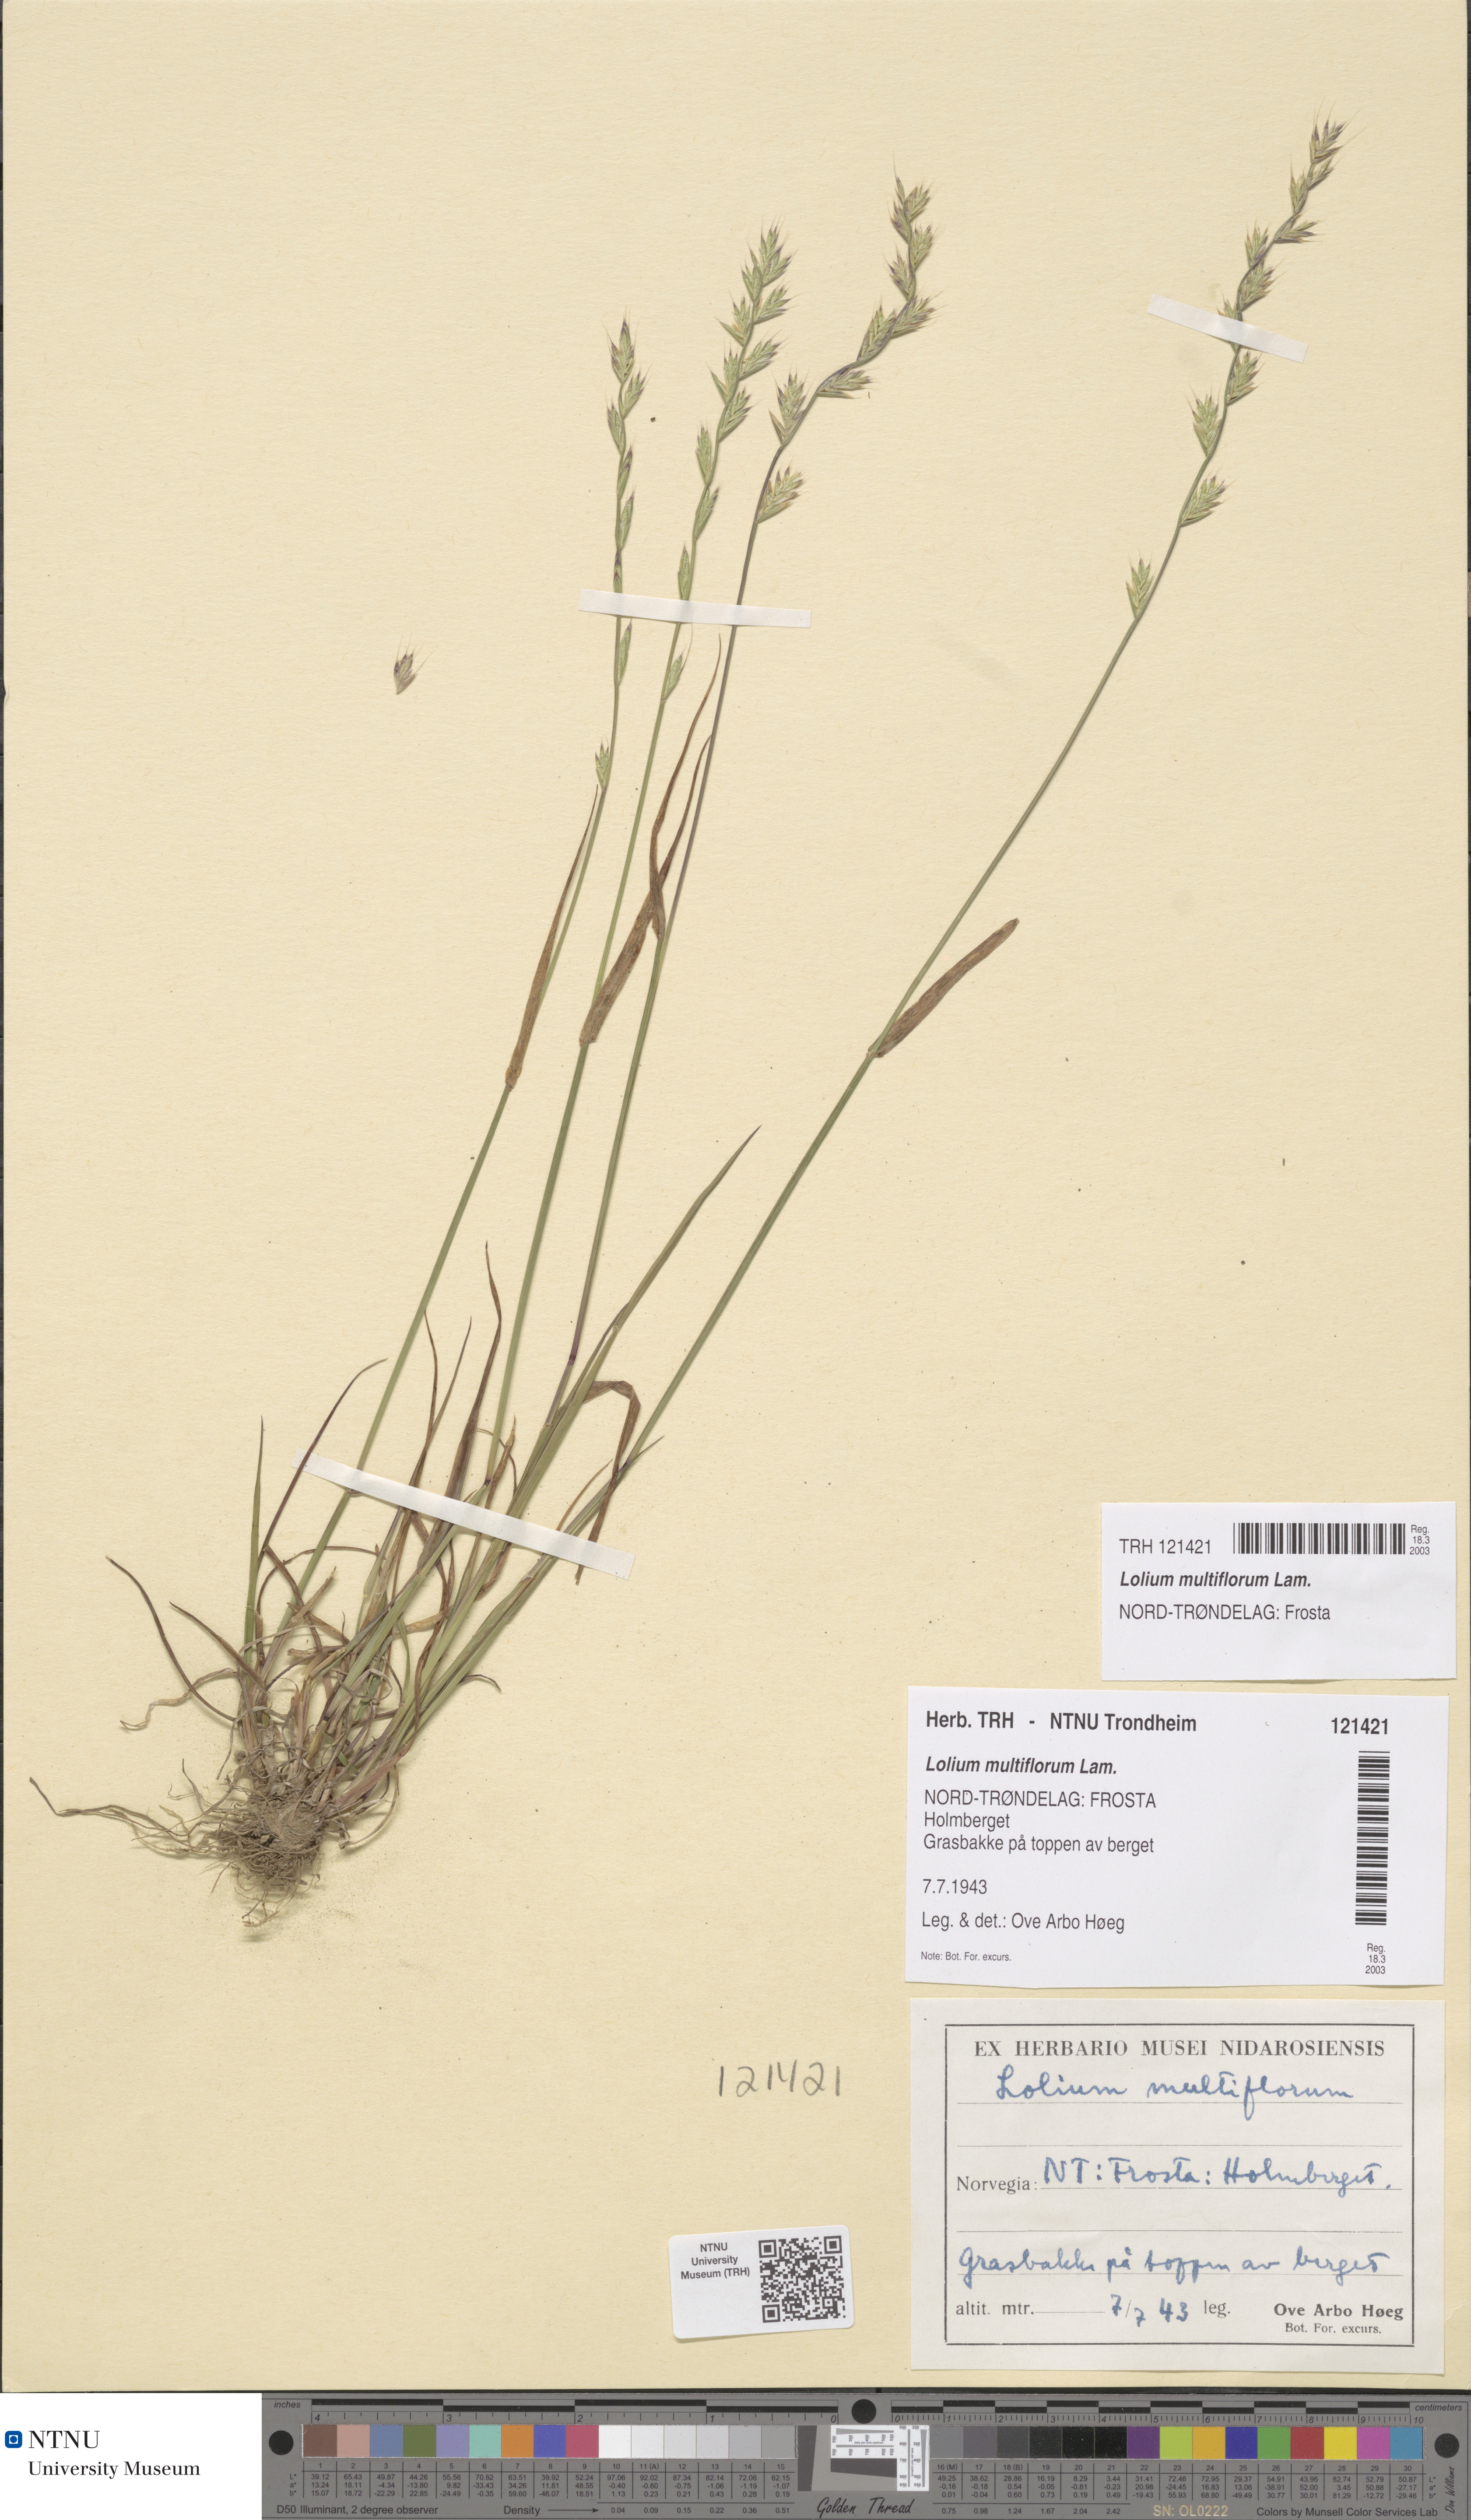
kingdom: Plantae
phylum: Tracheophyta
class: Liliopsida
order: Poales
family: Poaceae
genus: Lolium
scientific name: Lolium multiflorum
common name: Annual ryegrass
